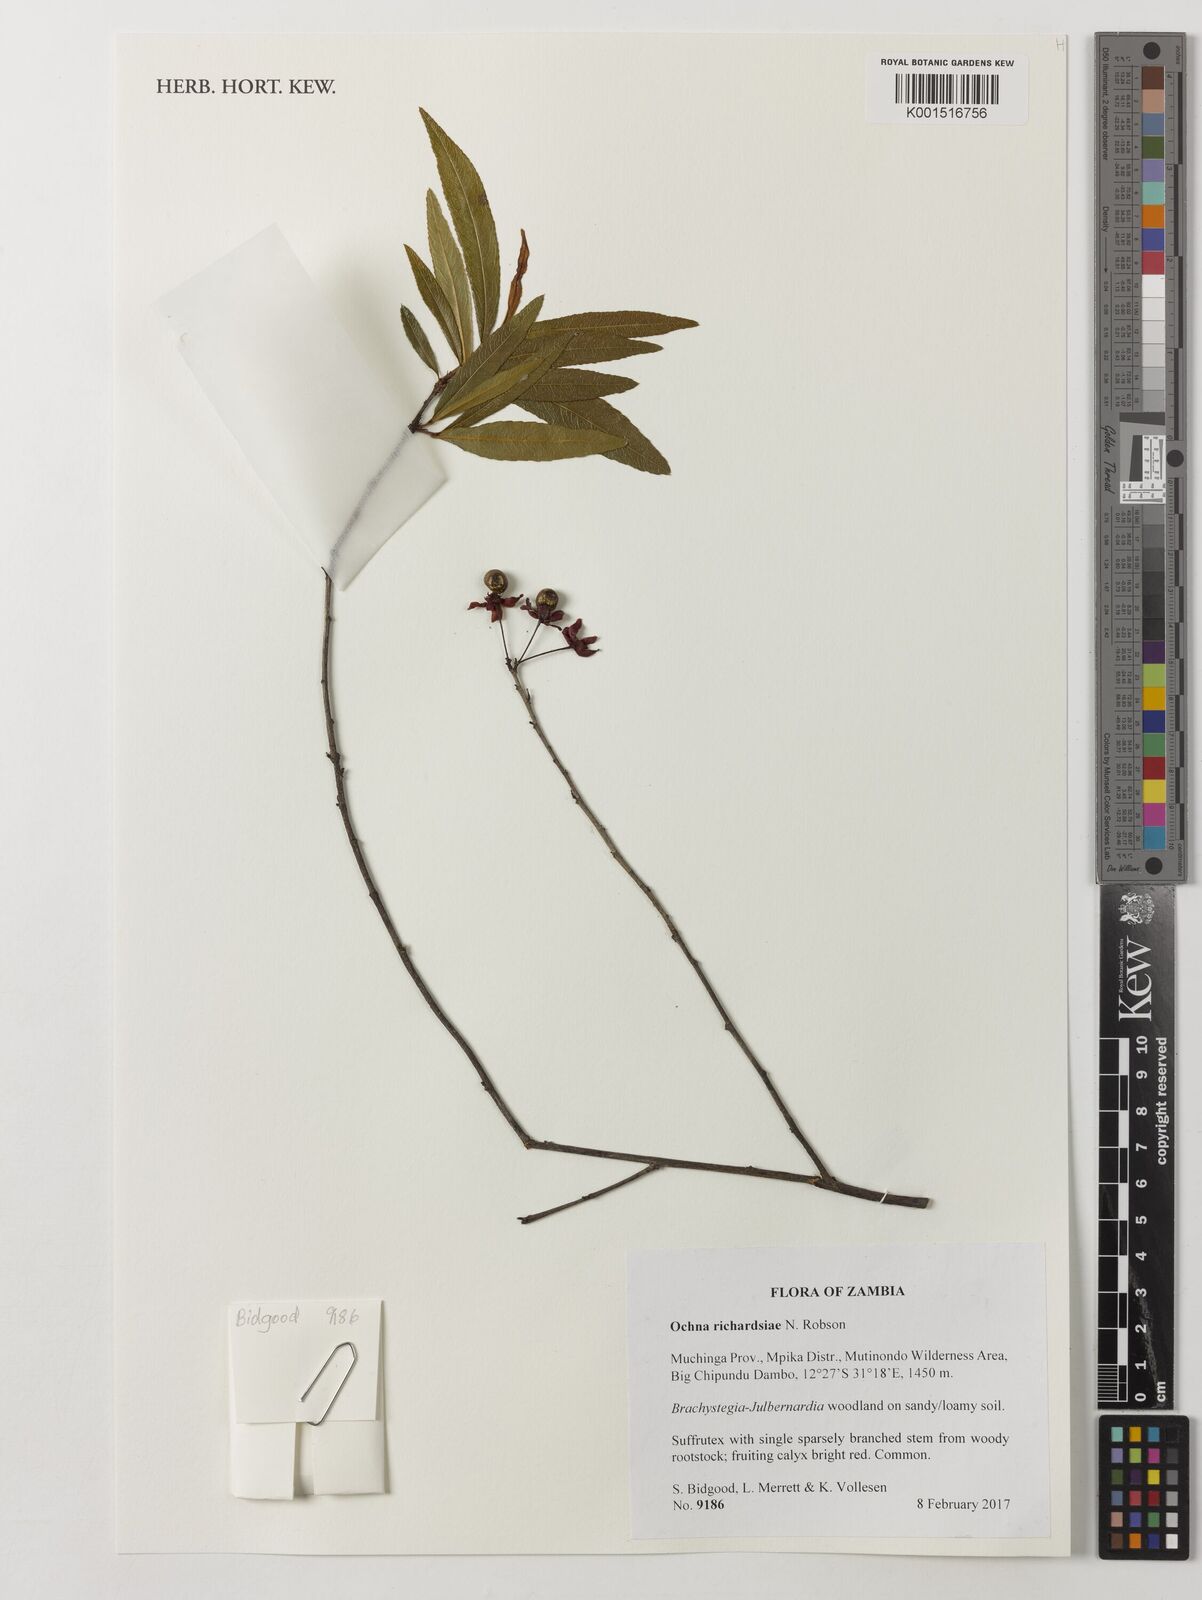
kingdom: Plantae
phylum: Tracheophyta
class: Magnoliopsida
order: Malpighiales
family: Ochnaceae
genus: Ochna
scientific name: Ochna richardsiae
